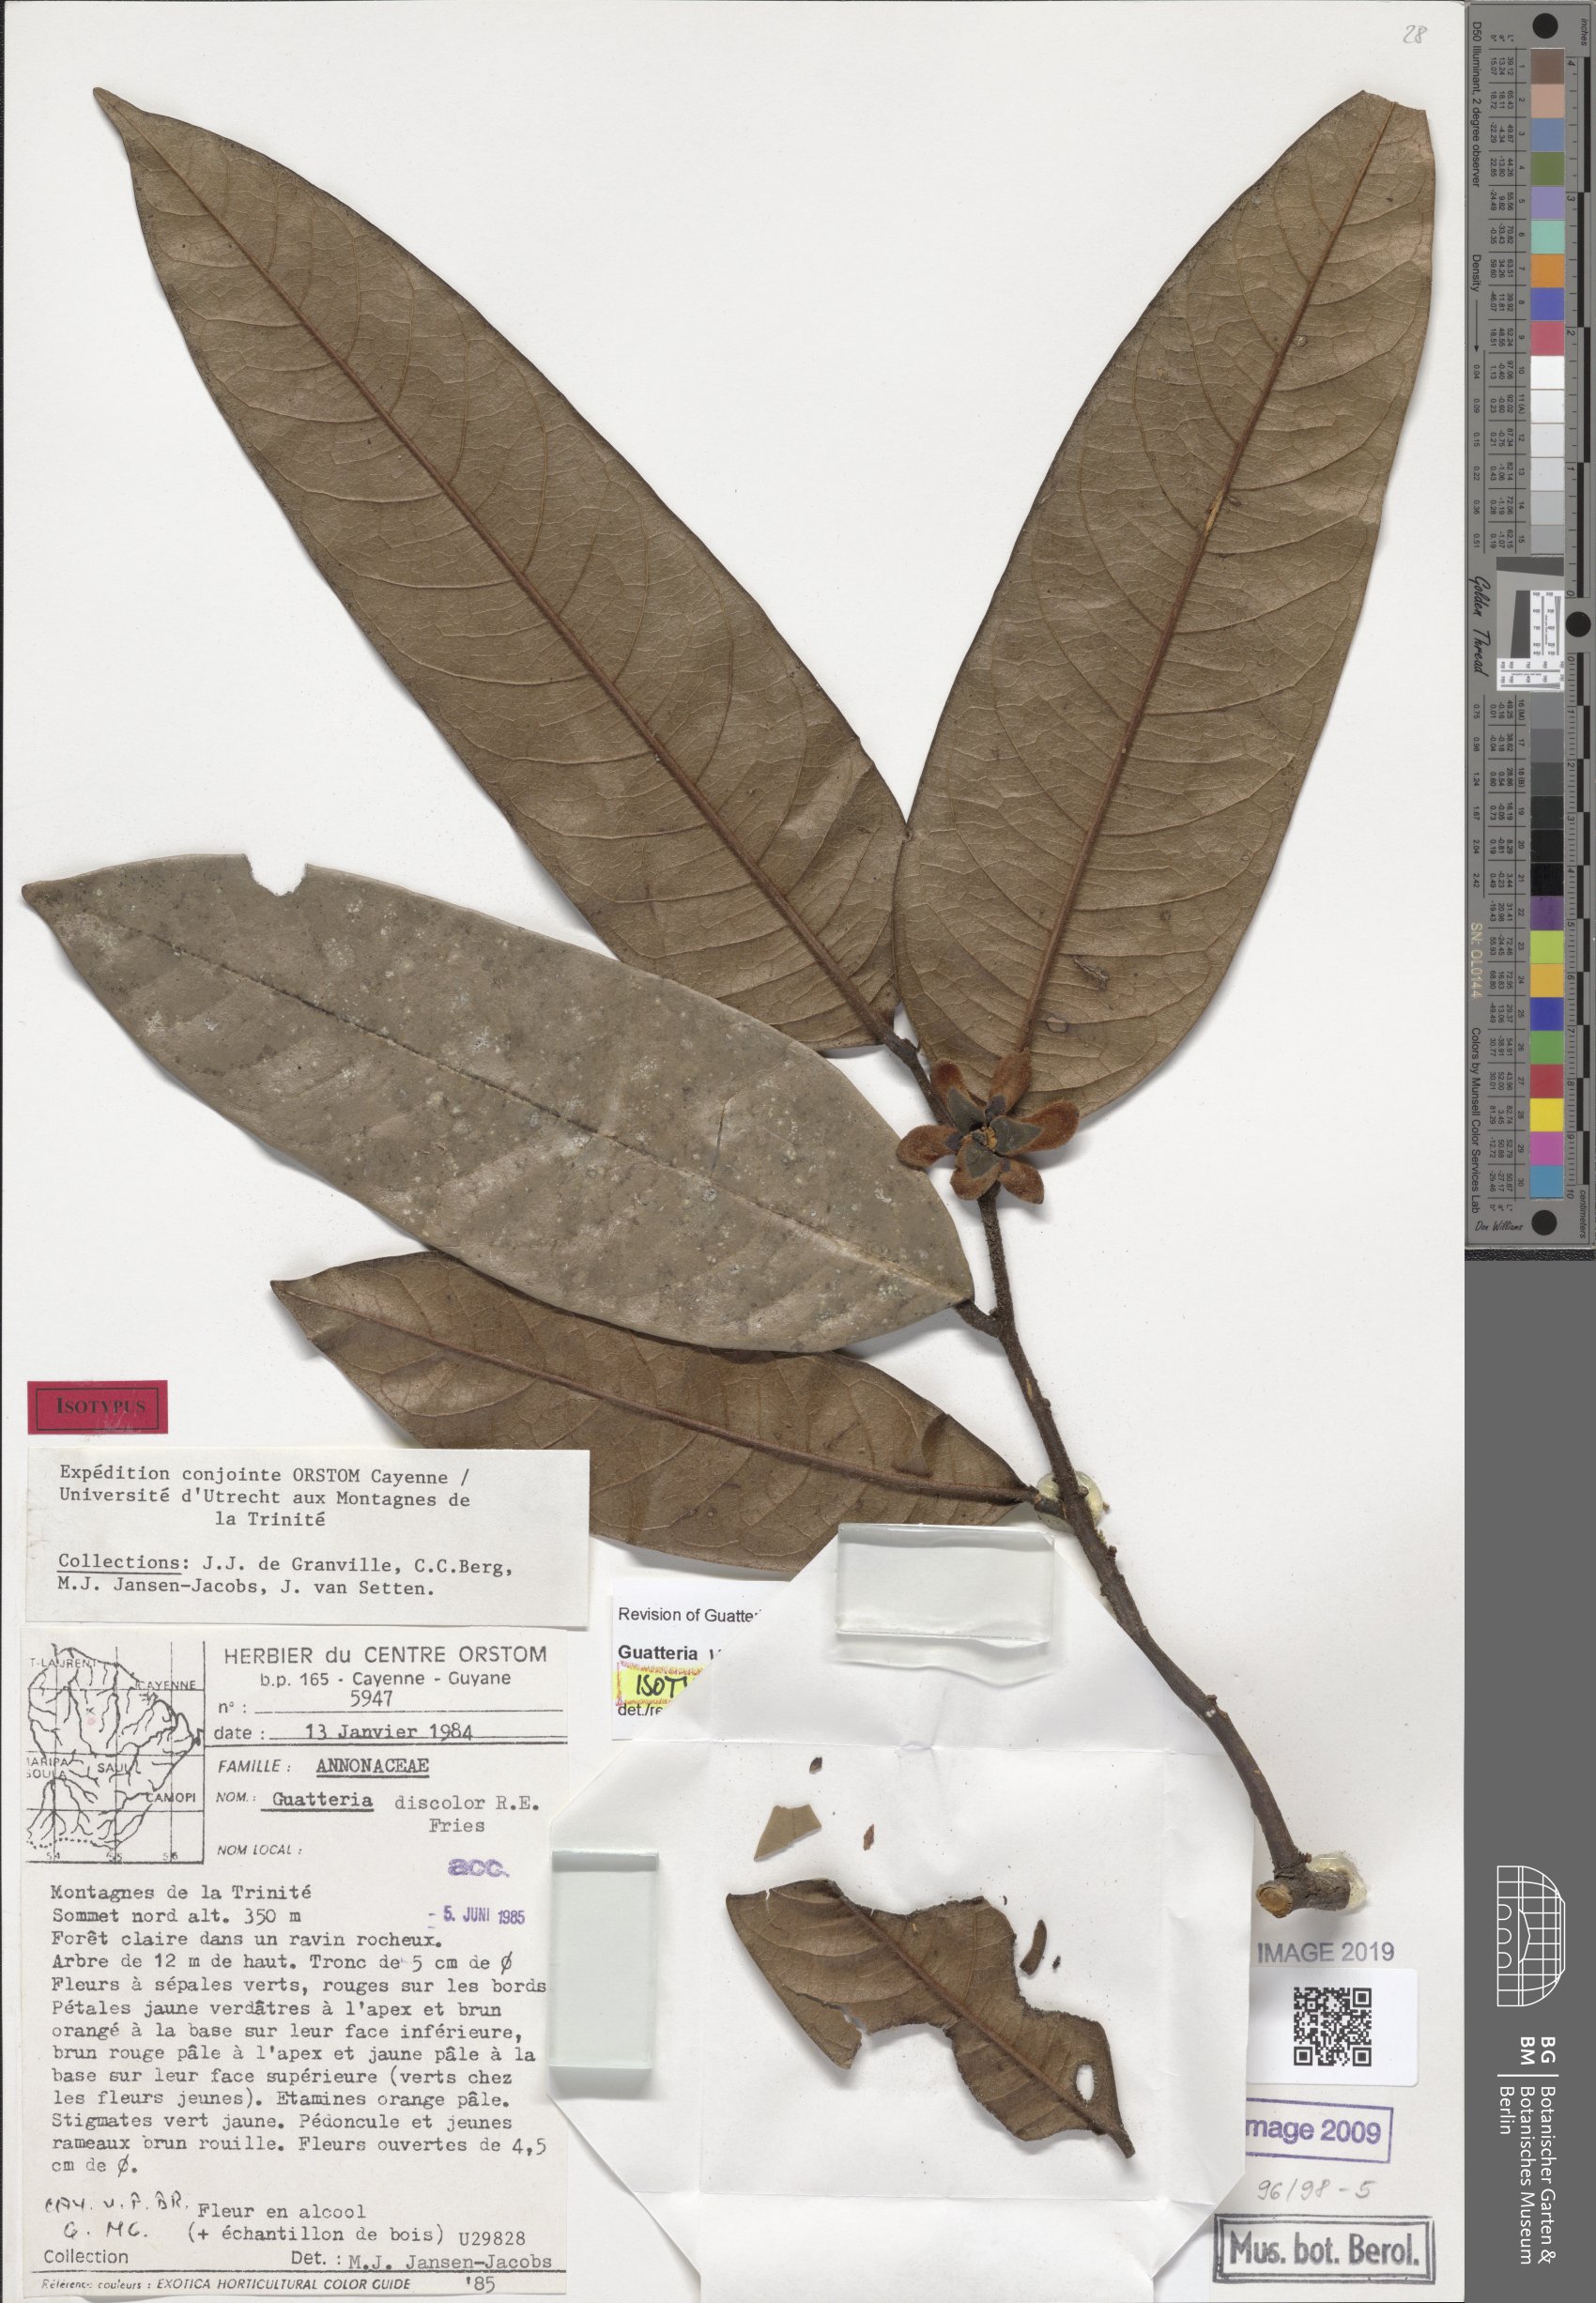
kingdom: Plantae
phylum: Tracheophyta
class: Magnoliopsida
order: Magnoliales
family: Annonaceae
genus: Guatteria
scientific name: Guatteria montis-trinitatis
